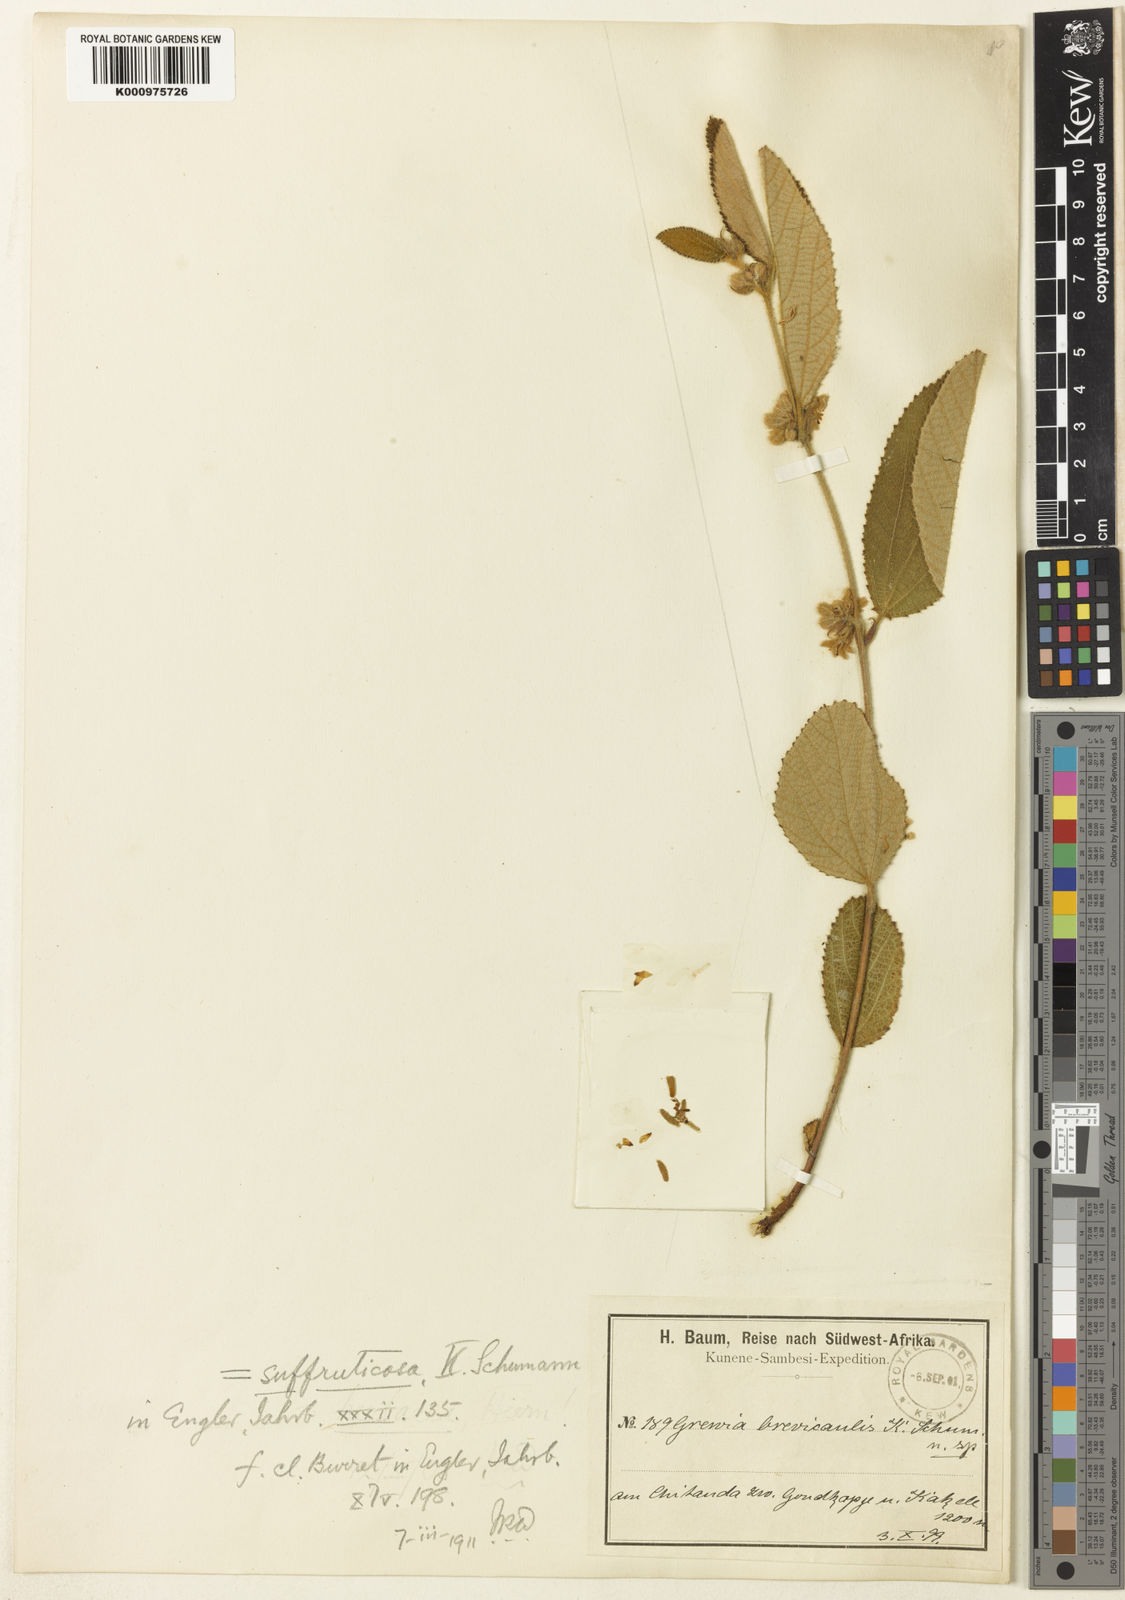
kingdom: Plantae
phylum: Tracheophyta
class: Magnoliopsida
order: Malvales
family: Malvaceae
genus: Grewia
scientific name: Grewia suffruticosa
